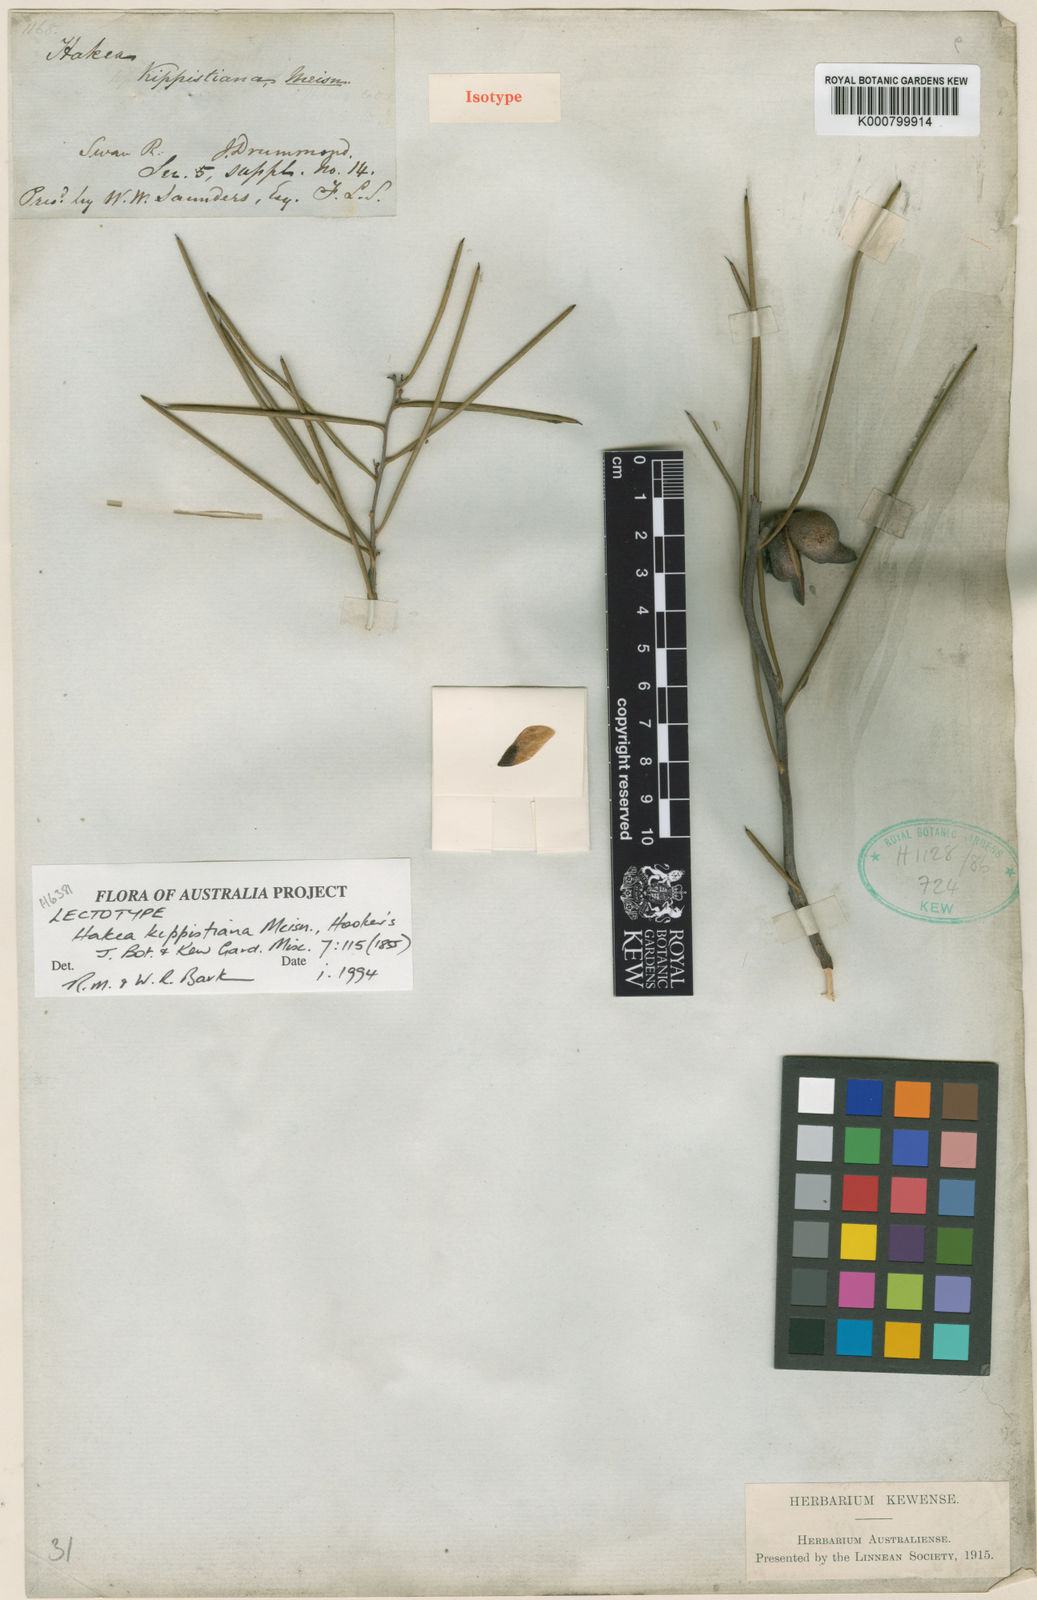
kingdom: Plantae
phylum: Tracheophyta
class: Magnoliopsida
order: Proteales
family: Proteaceae
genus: Hakea
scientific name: Hakea kippistiana
